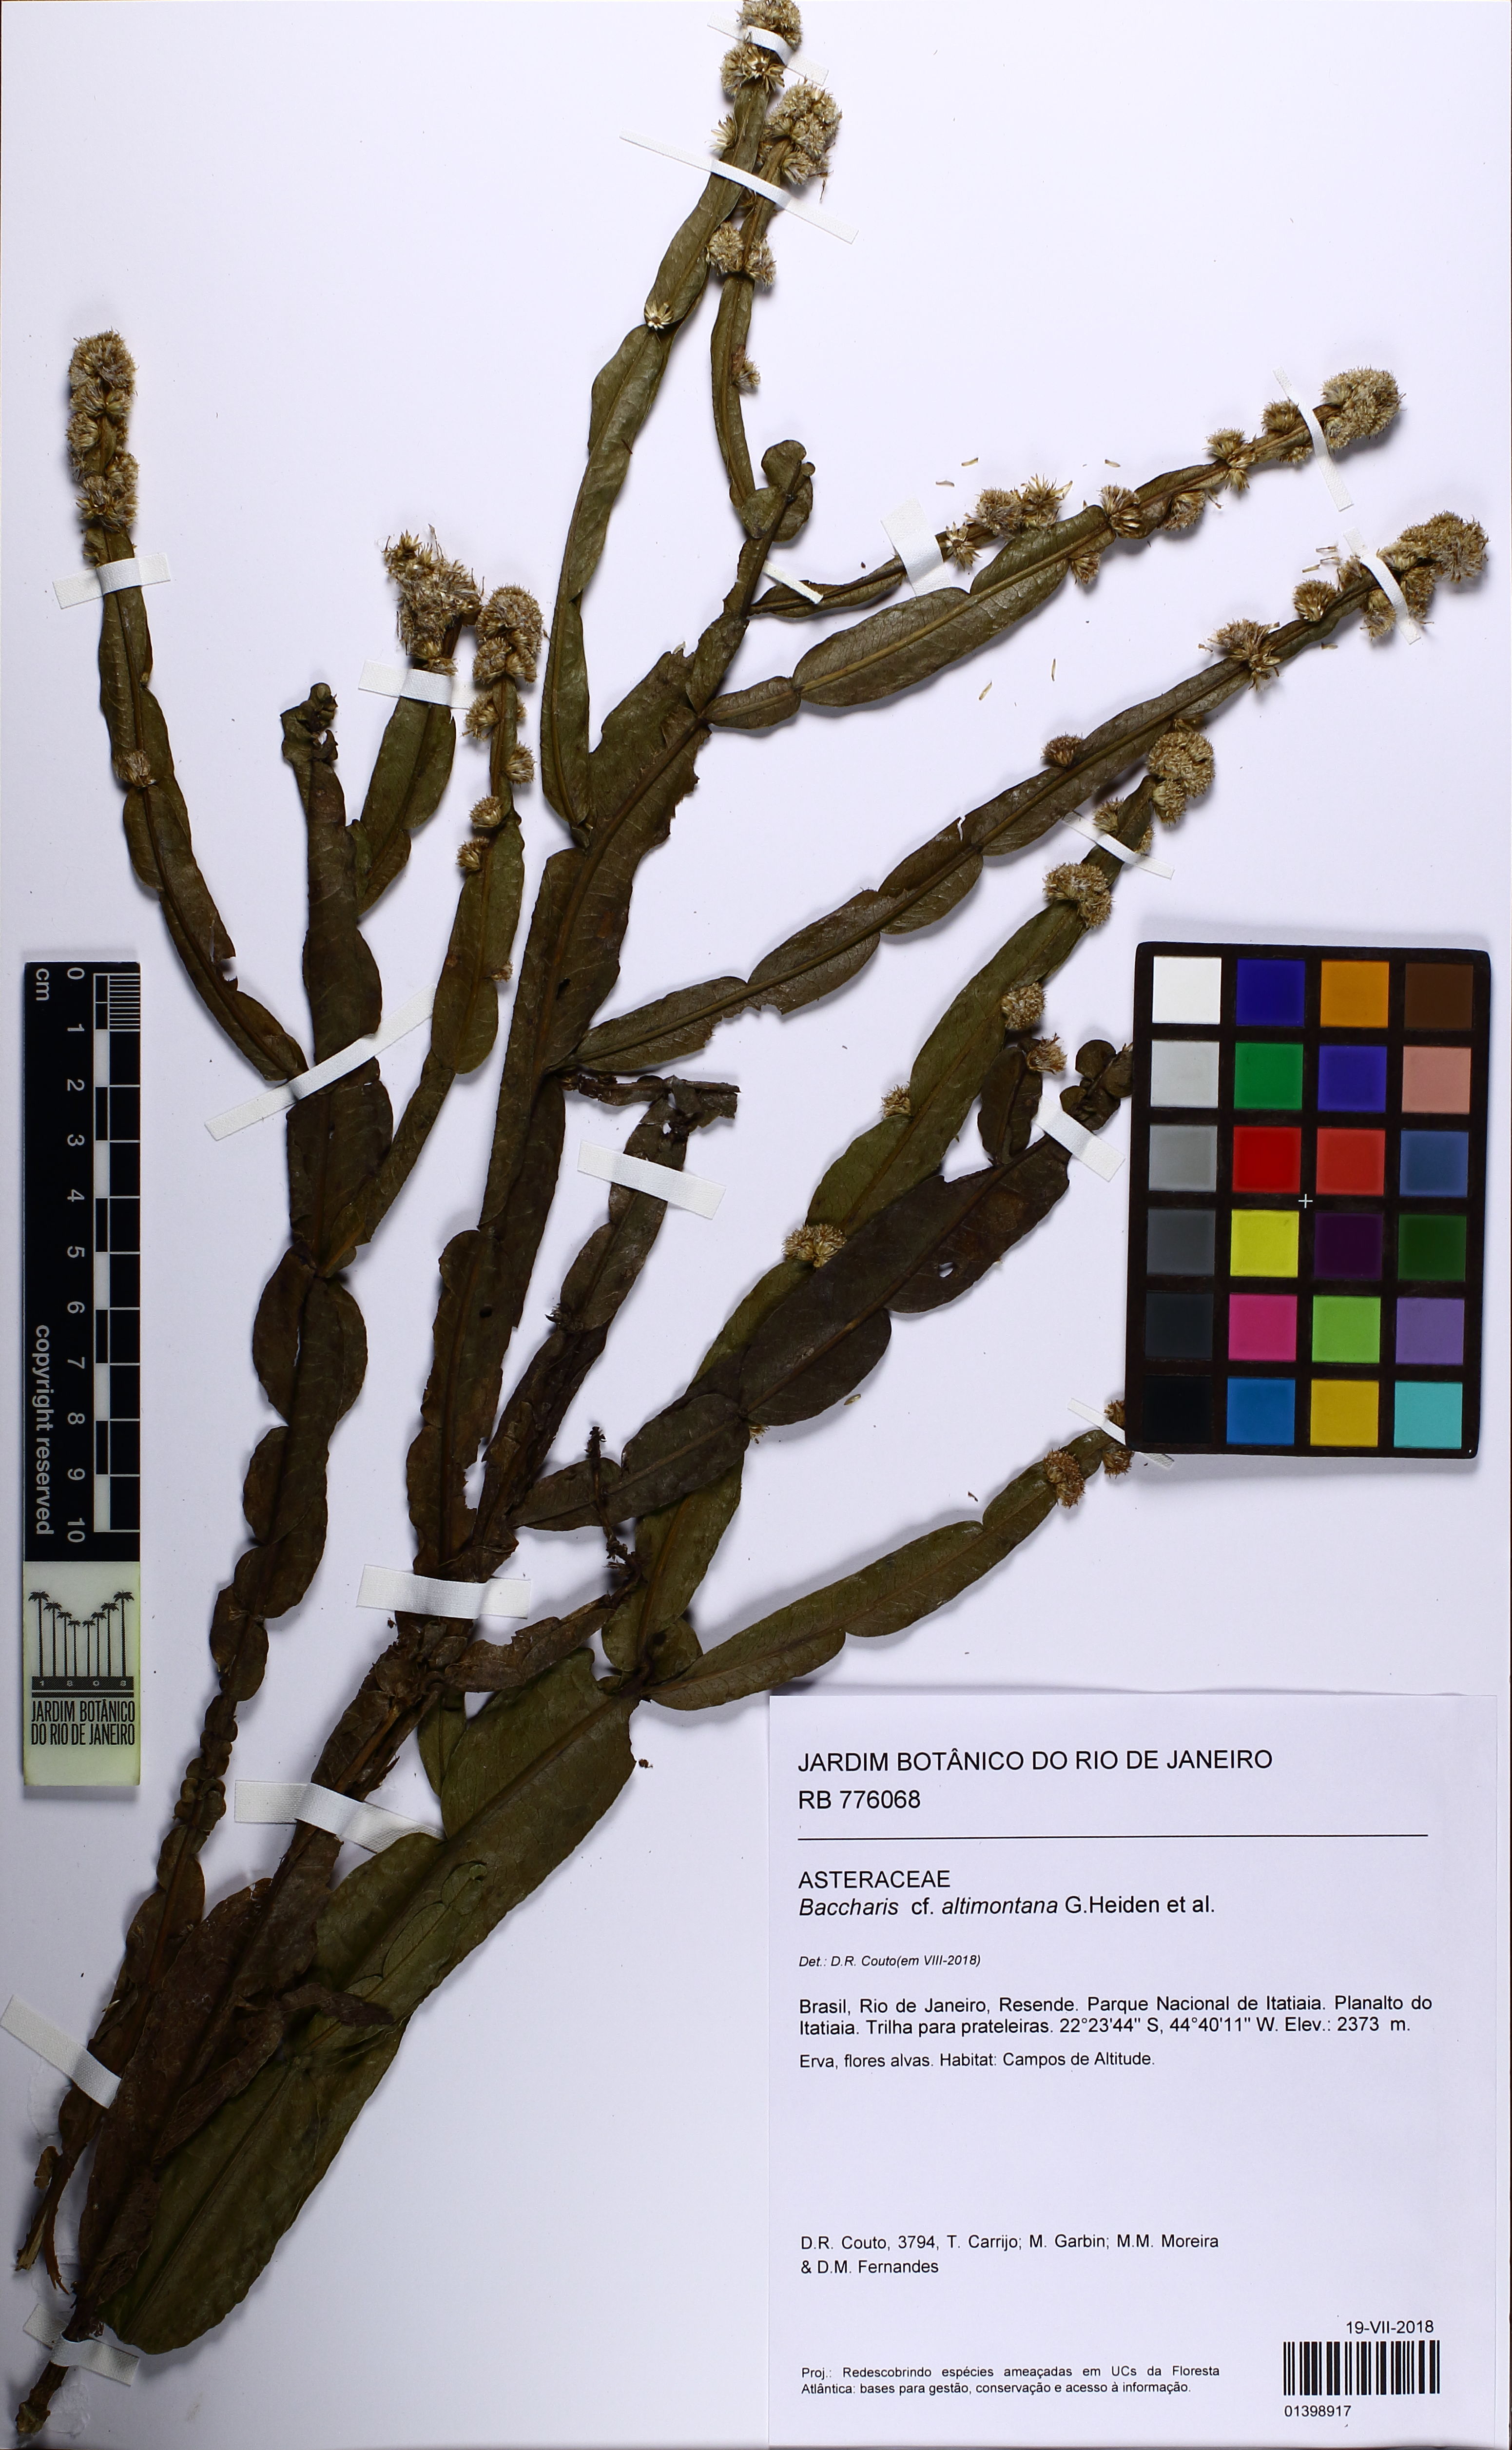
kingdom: Plantae
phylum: Tracheophyta
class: Magnoliopsida
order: Asterales
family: Asteraceae
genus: Baccharis
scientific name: Baccharis altimontana
